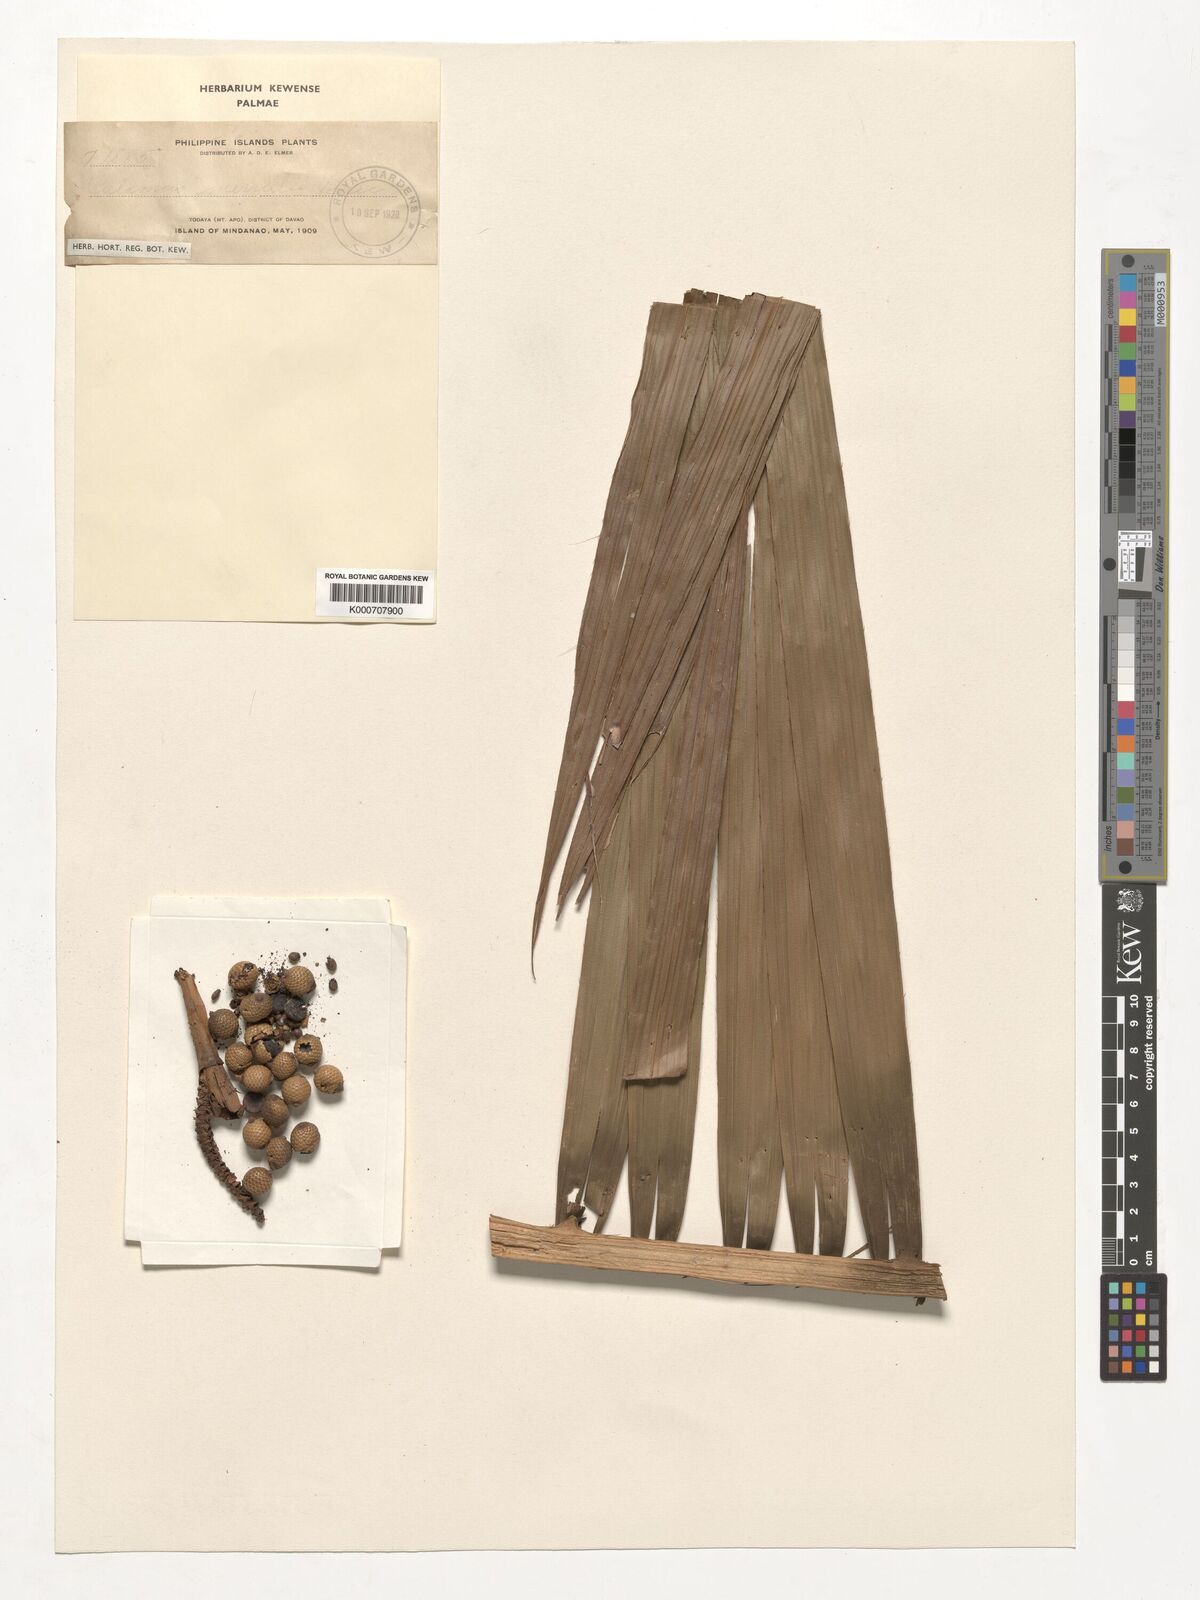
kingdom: Plantae
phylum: Tracheophyta
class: Liliopsida
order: Arecales
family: Arecaceae
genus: Calamus
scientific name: Calamus zollingeri
